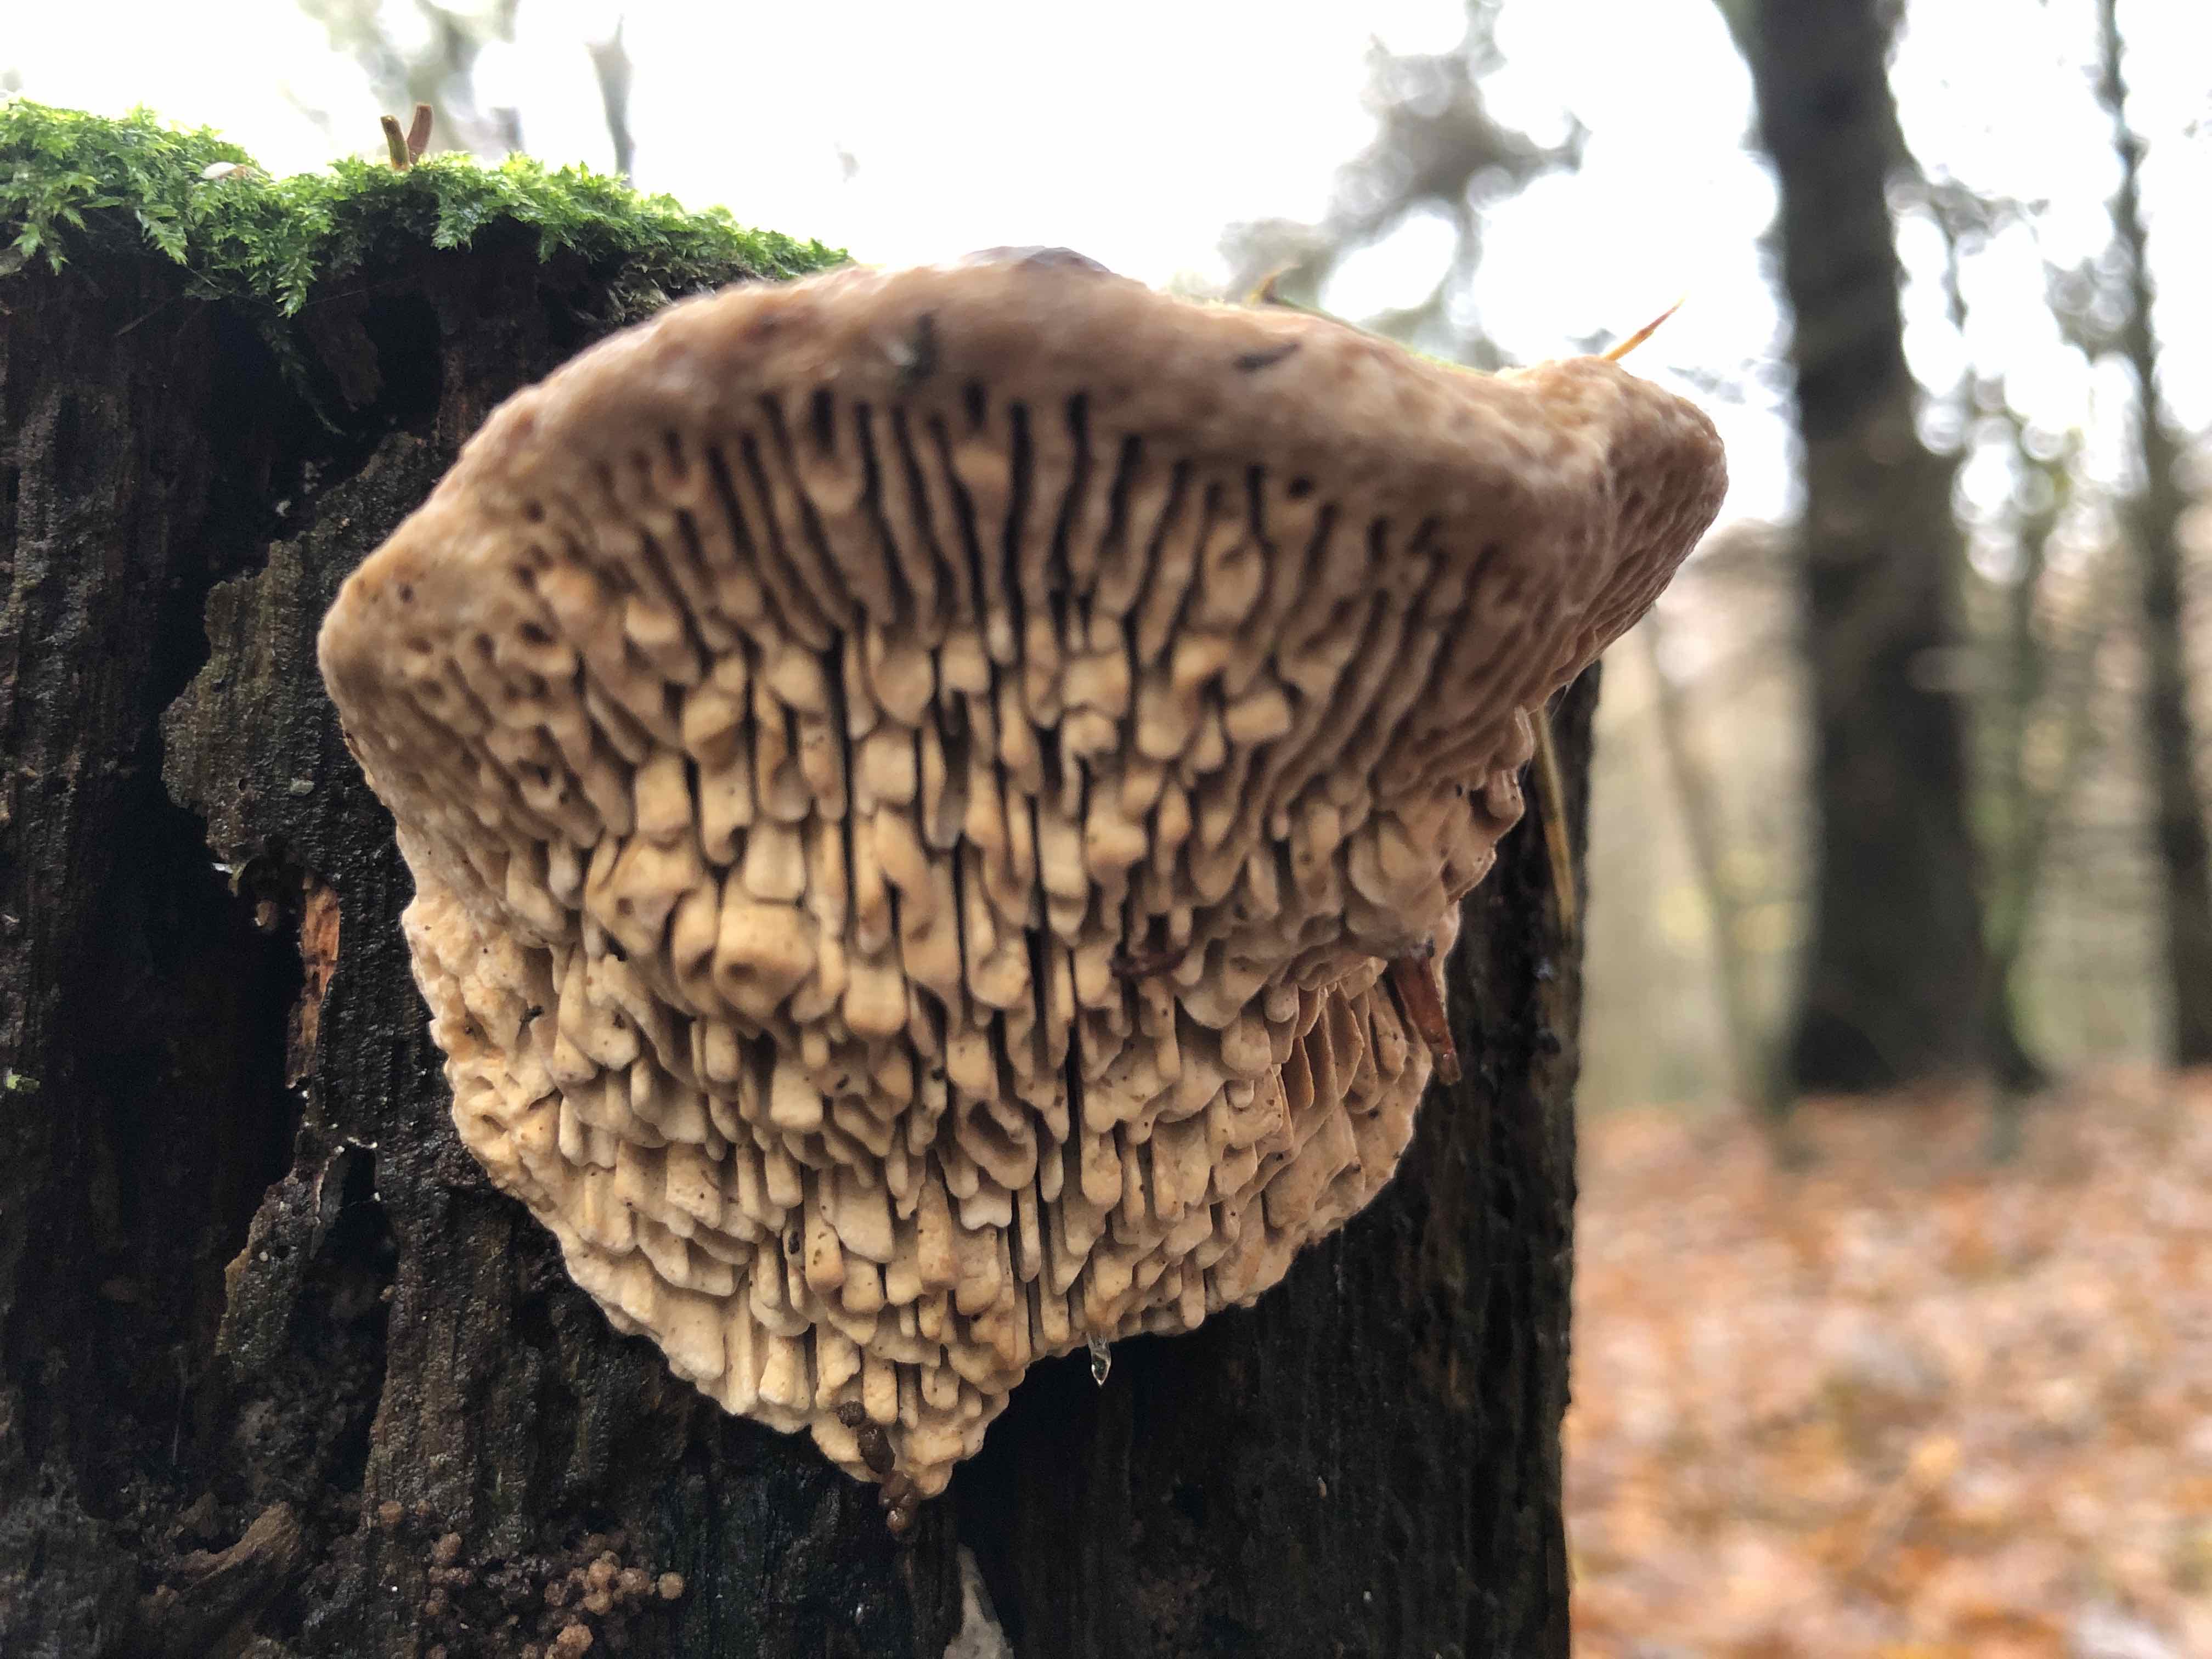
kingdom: Fungi
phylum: Basidiomycota
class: Agaricomycetes
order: Polyporales
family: Fomitopsidaceae
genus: Daedalea
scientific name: Daedalea quercina
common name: ege-labyrintsvamp
